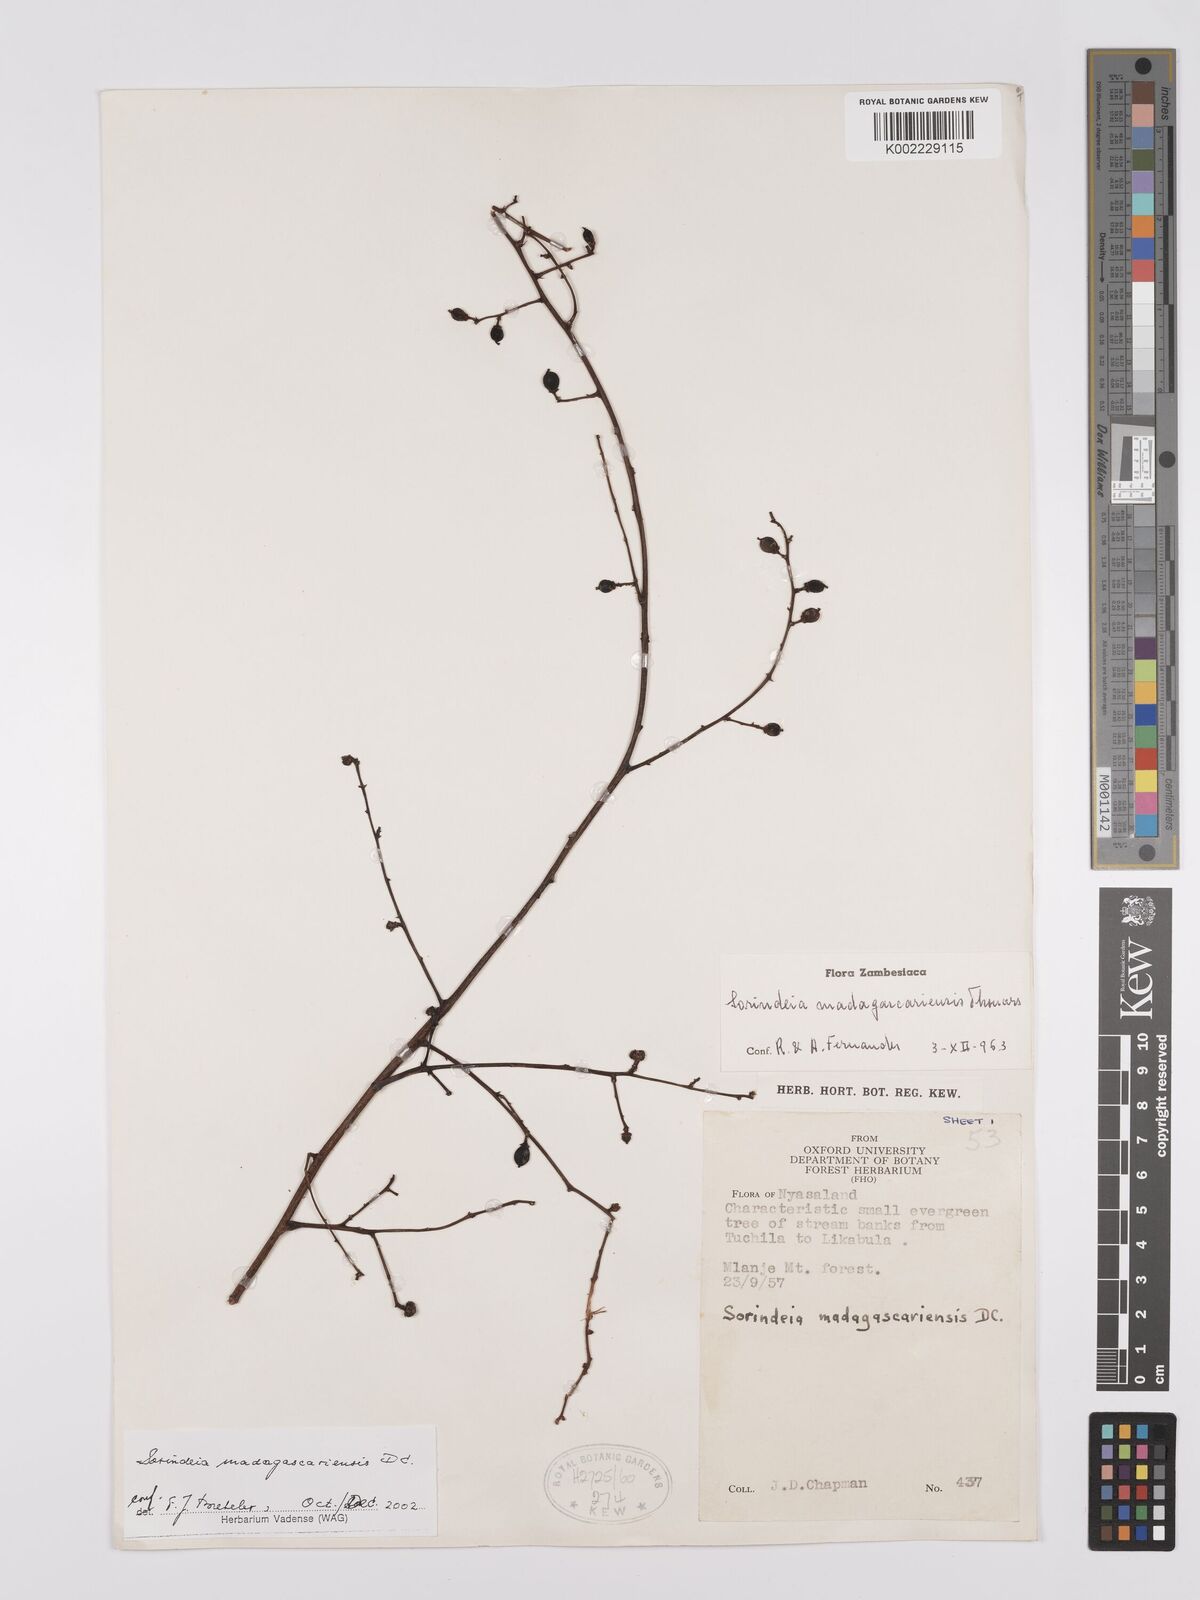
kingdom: Plantae
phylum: Tracheophyta
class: Magnoliopsida
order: Sapindales
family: Anacardiaceae
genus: Sorindeia
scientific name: Sorindeia madagascariensis
